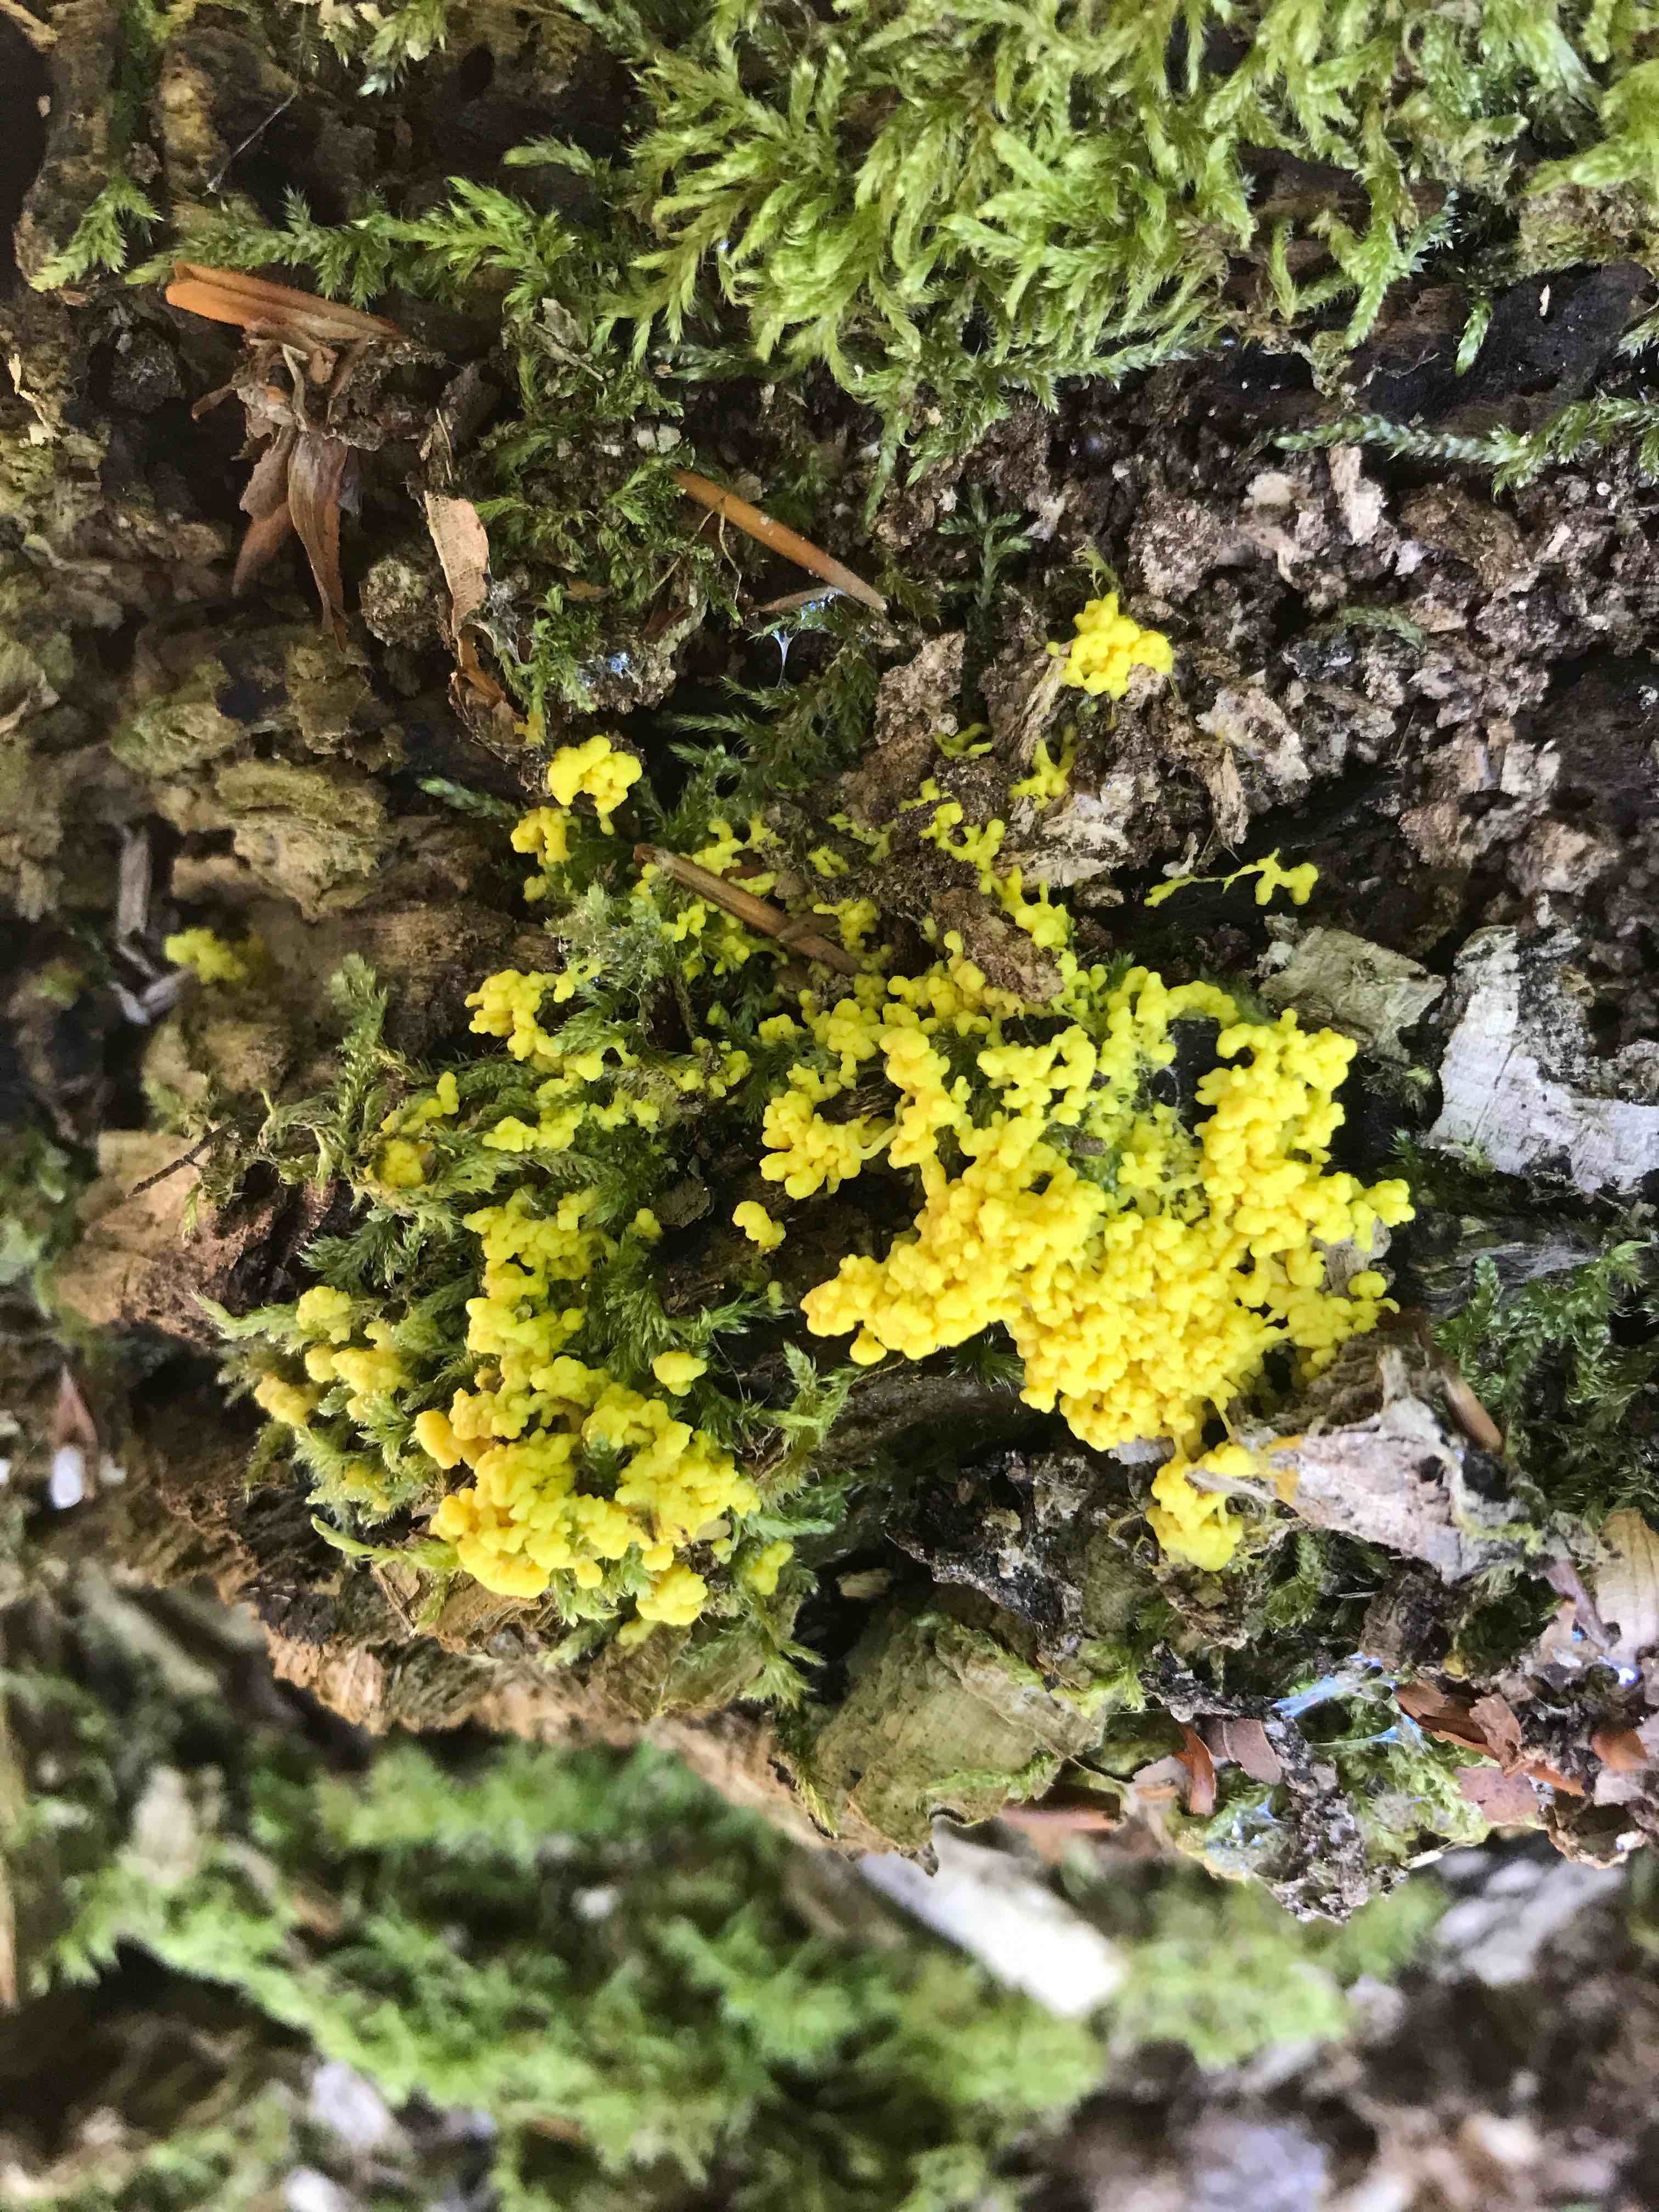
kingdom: Protozoa
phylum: Mycetozoa
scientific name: Mycetozoa
